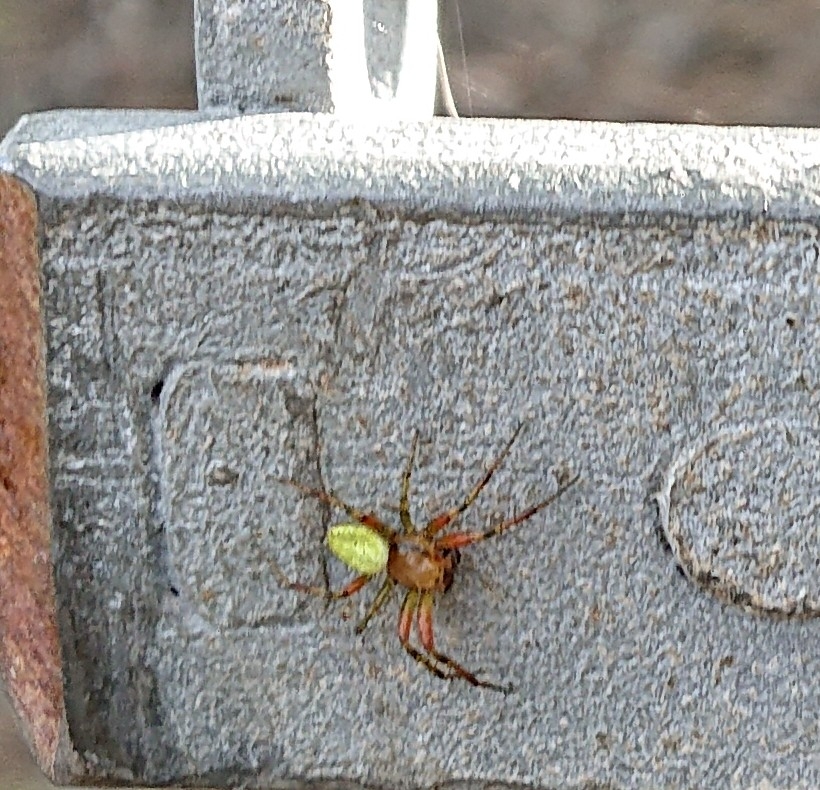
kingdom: Animalia
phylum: Arthropoda
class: Arachnida
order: Araneae
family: Araneidae
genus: Araniella
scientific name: Araniella
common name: Agurkeedderkopslægten
